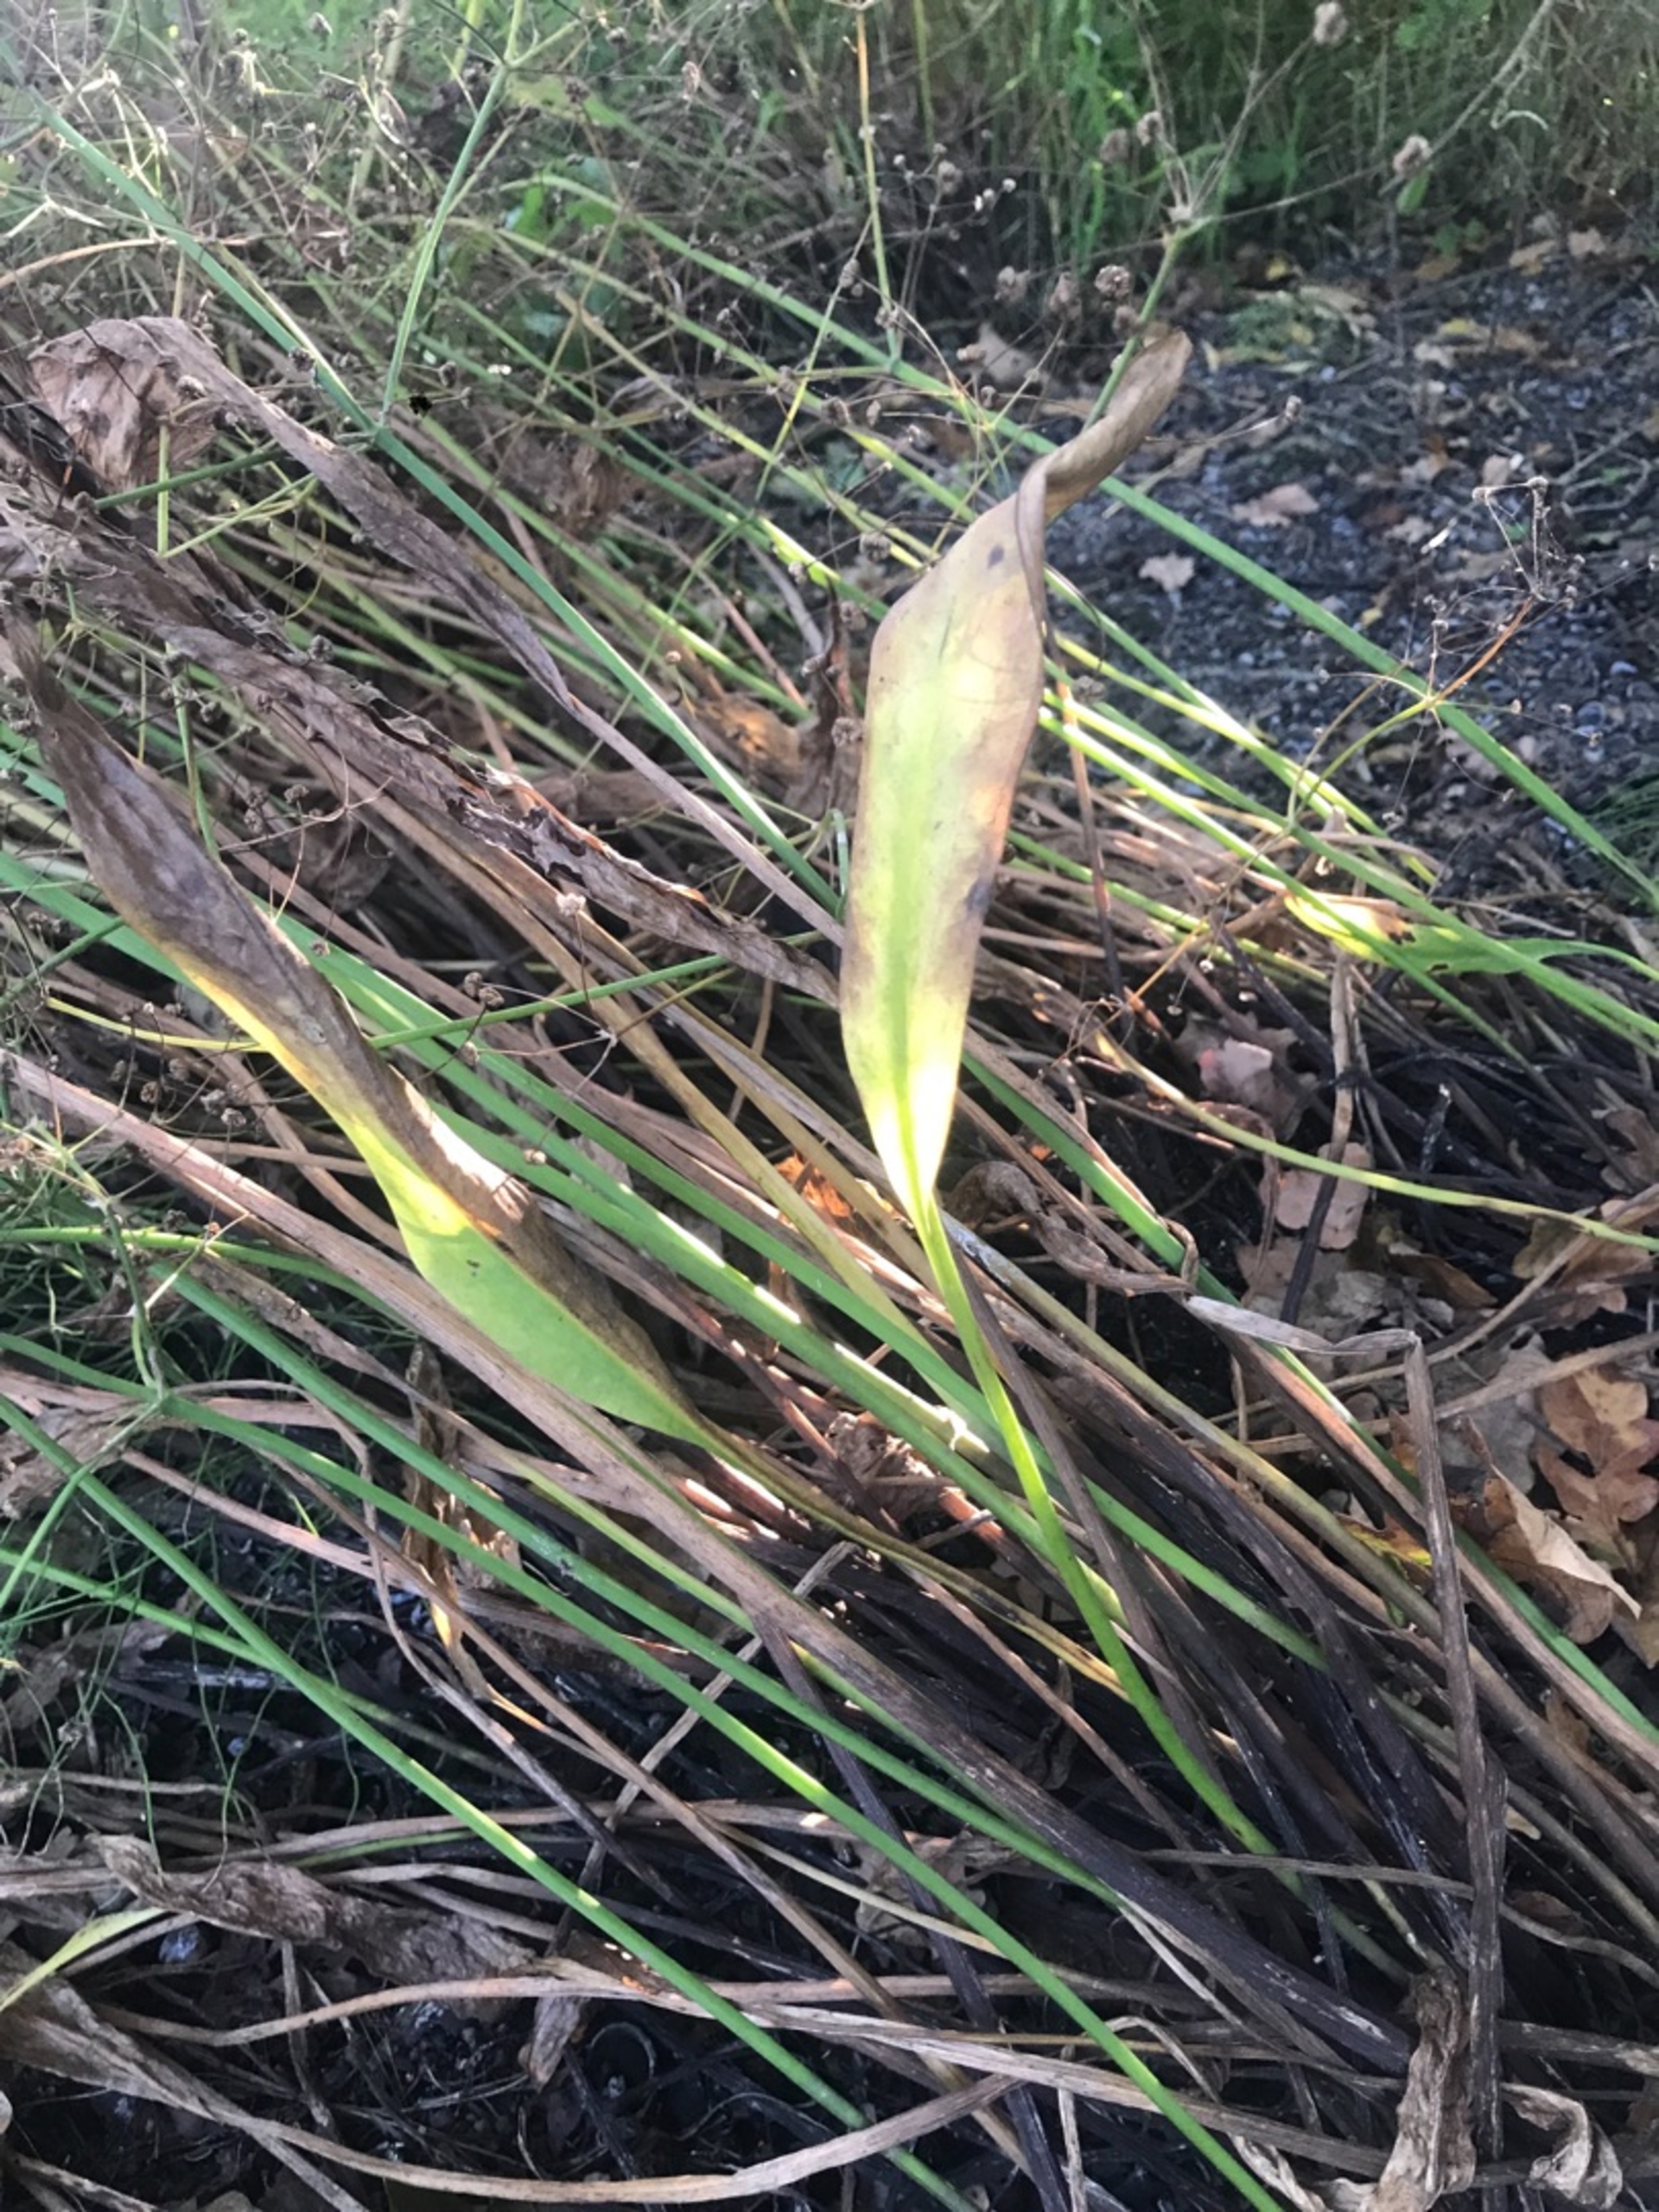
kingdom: Plantae
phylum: Tracheophyta
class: Liliopsida
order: Alismatales
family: Alismataceae
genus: Alisma
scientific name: Alisma lanceolatum
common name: Lancet-skeblad
